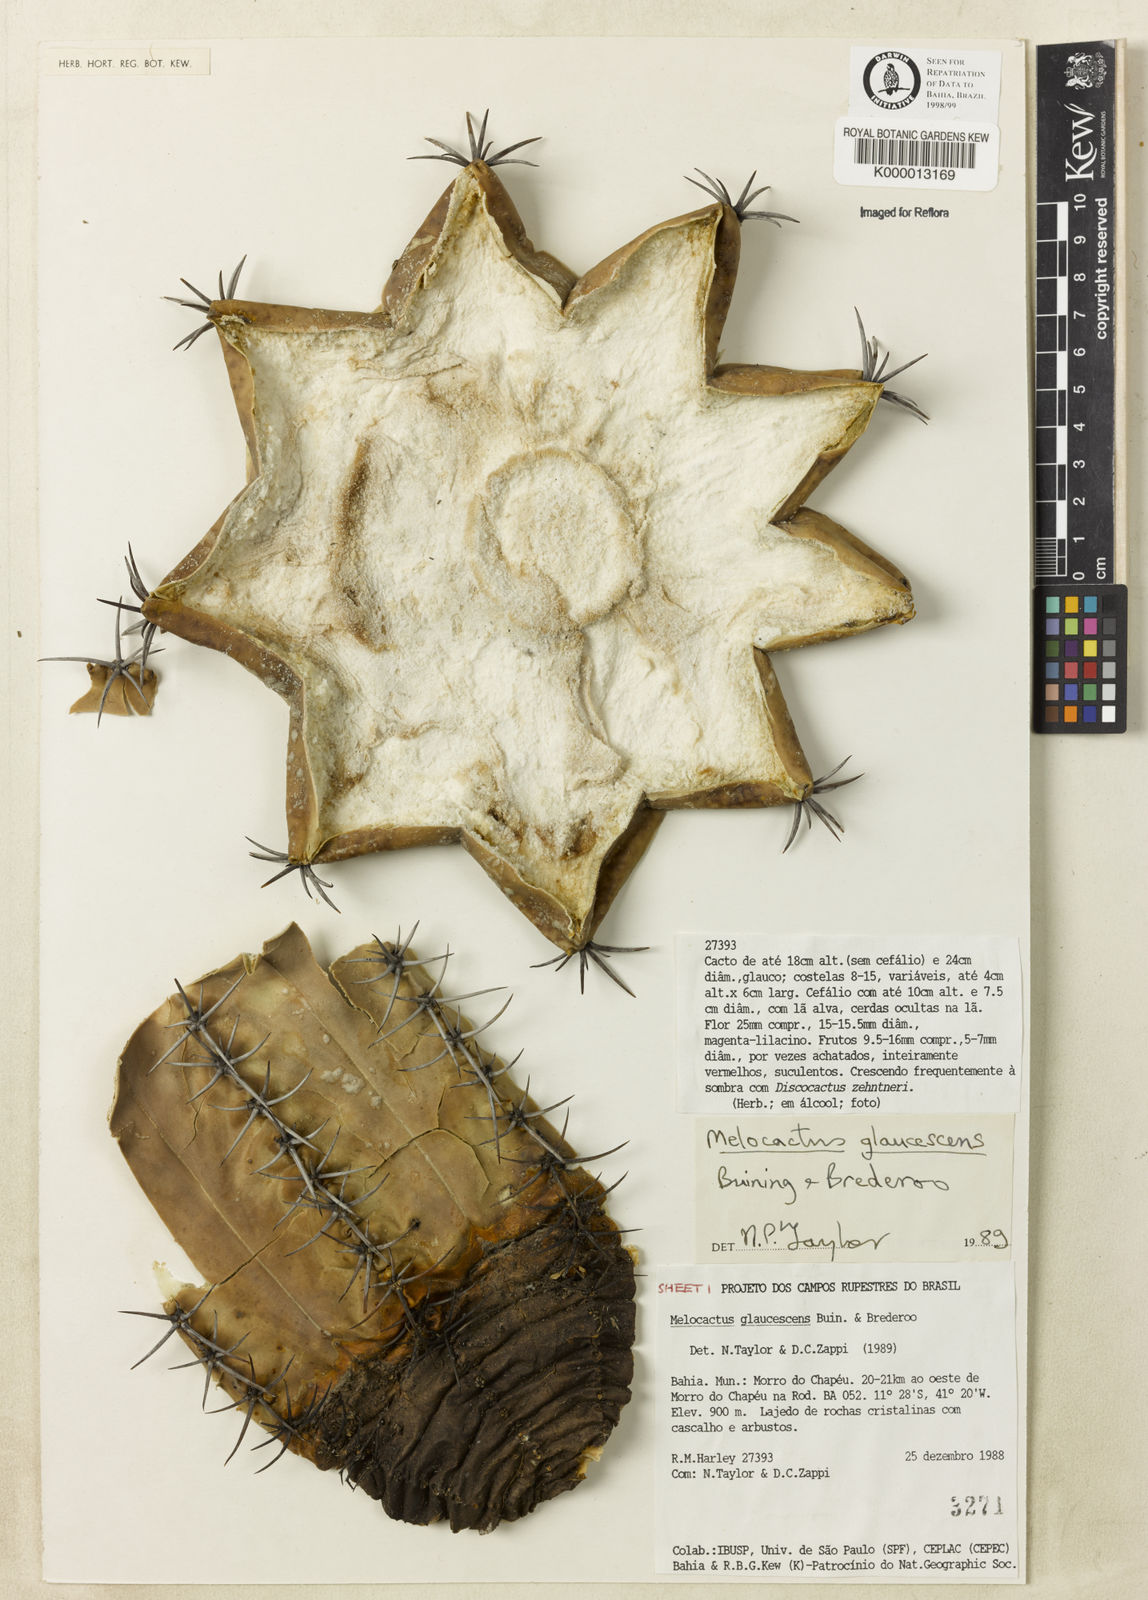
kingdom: Plantae
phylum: Tracheophyta
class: Magnoliopsida
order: Caryophyllales
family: Cactaceae
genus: Melocactus
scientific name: Melocactus glaucescens
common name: Woolly wax-stem turk's-cap cactus
